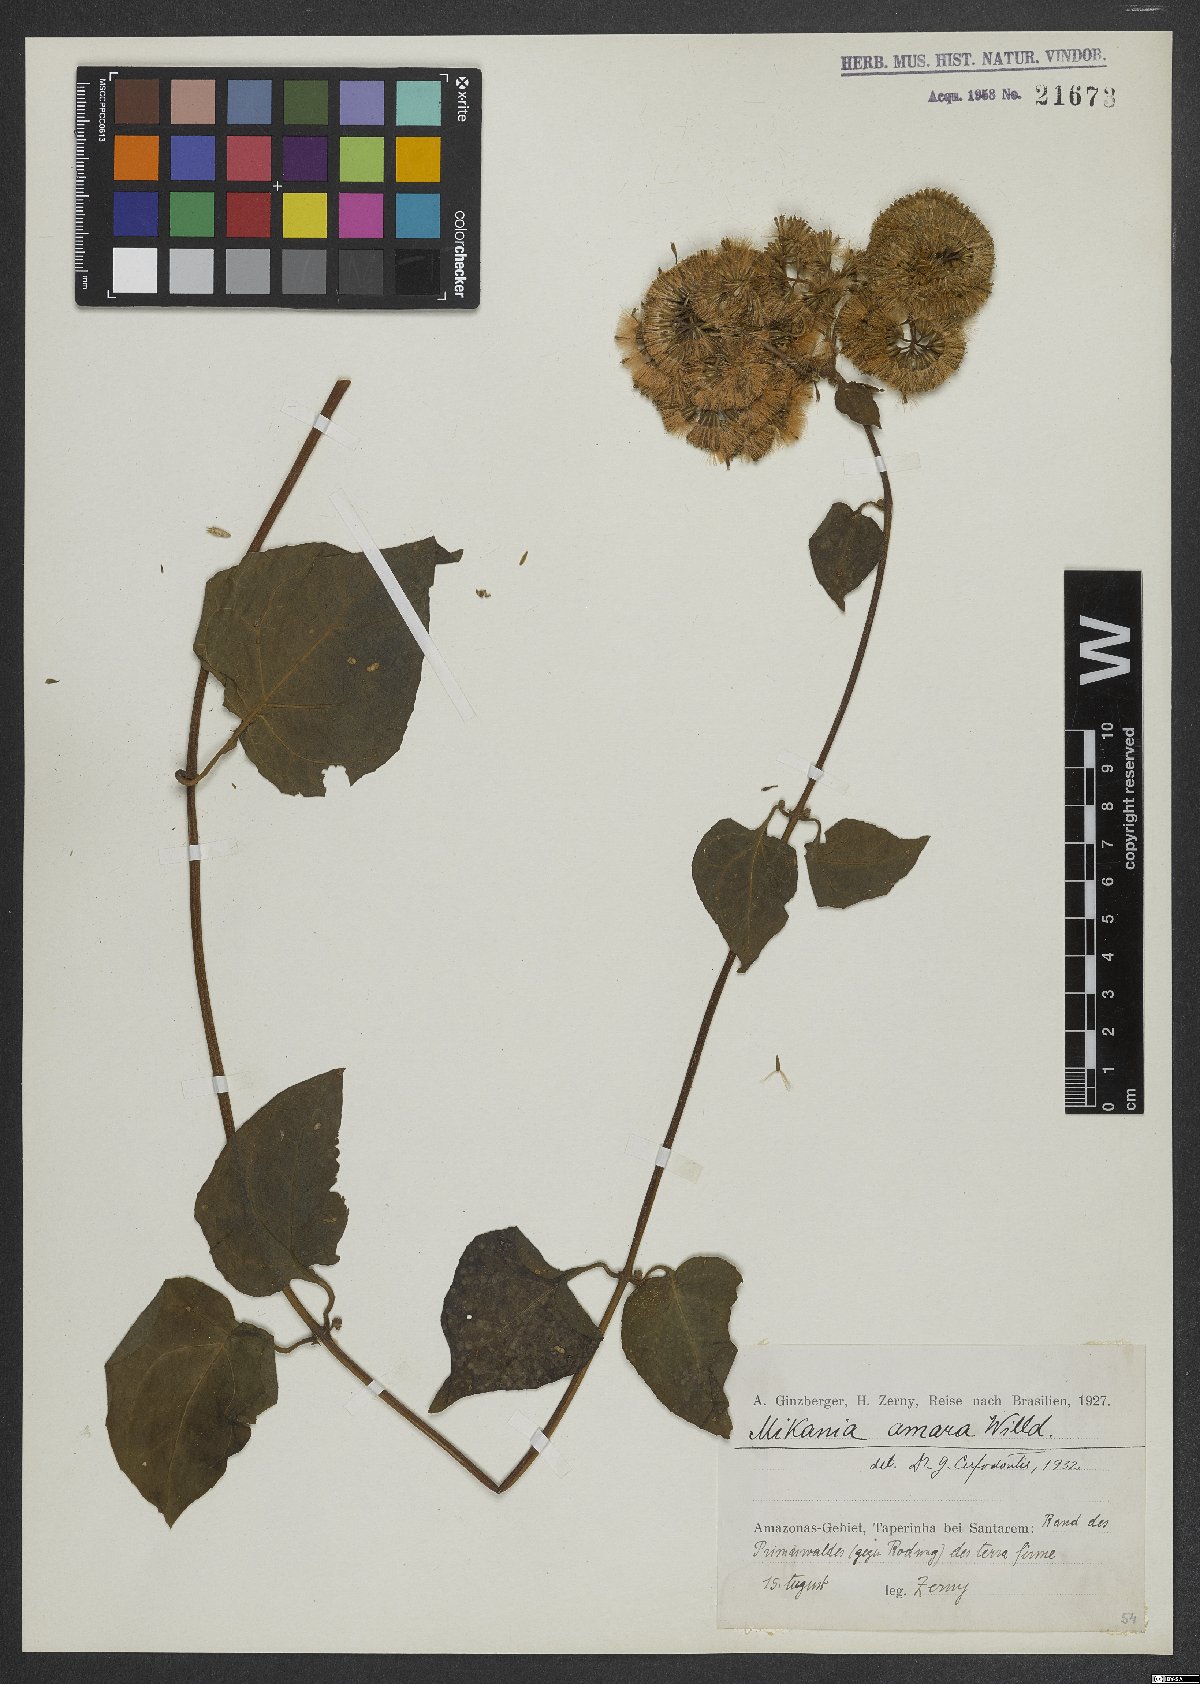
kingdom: Plantae
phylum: Tracheophyta
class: Magnoliopsida
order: Asterales
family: Asteraceae
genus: Mikania
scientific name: Mikania parviflora
